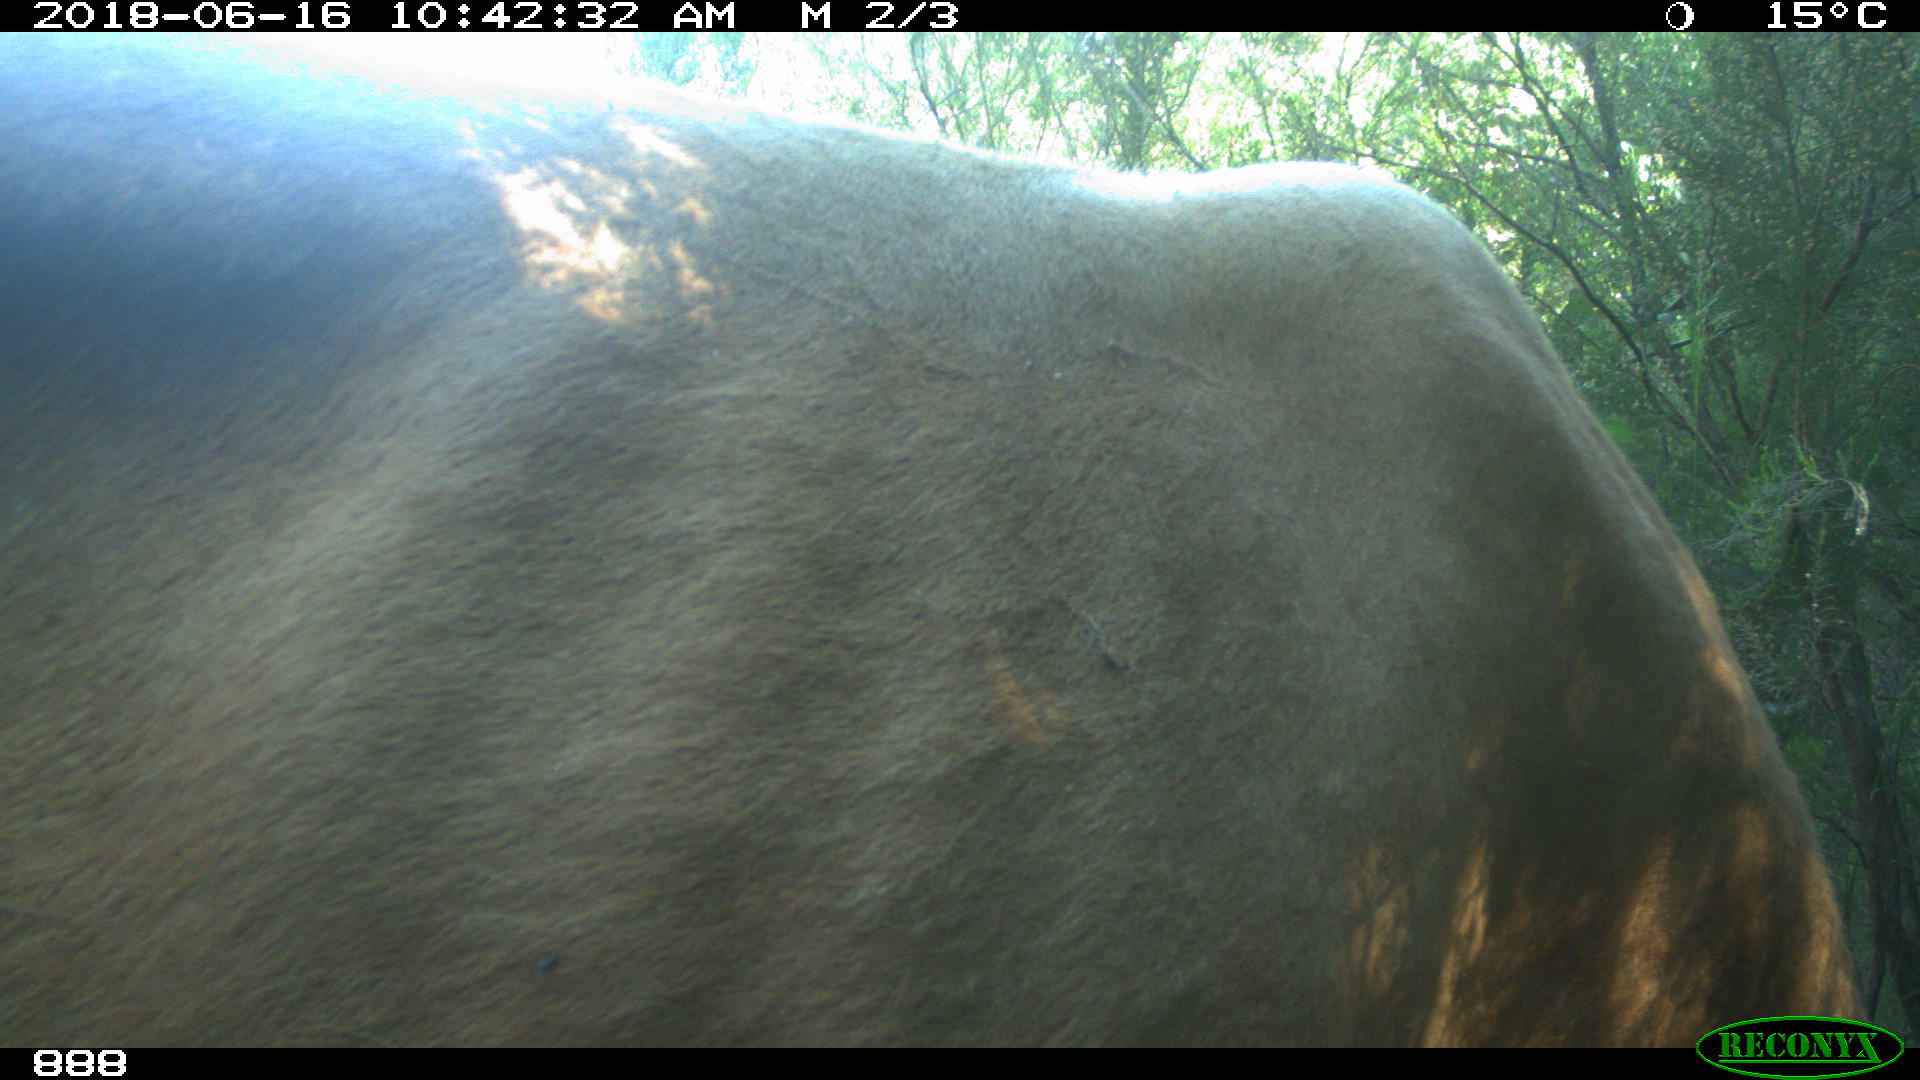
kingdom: Animalia
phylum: Chordata
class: Mammalia
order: Artiodactyla
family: Bovidae
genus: Bos
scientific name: Bos taurus
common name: Domesticated cattle
